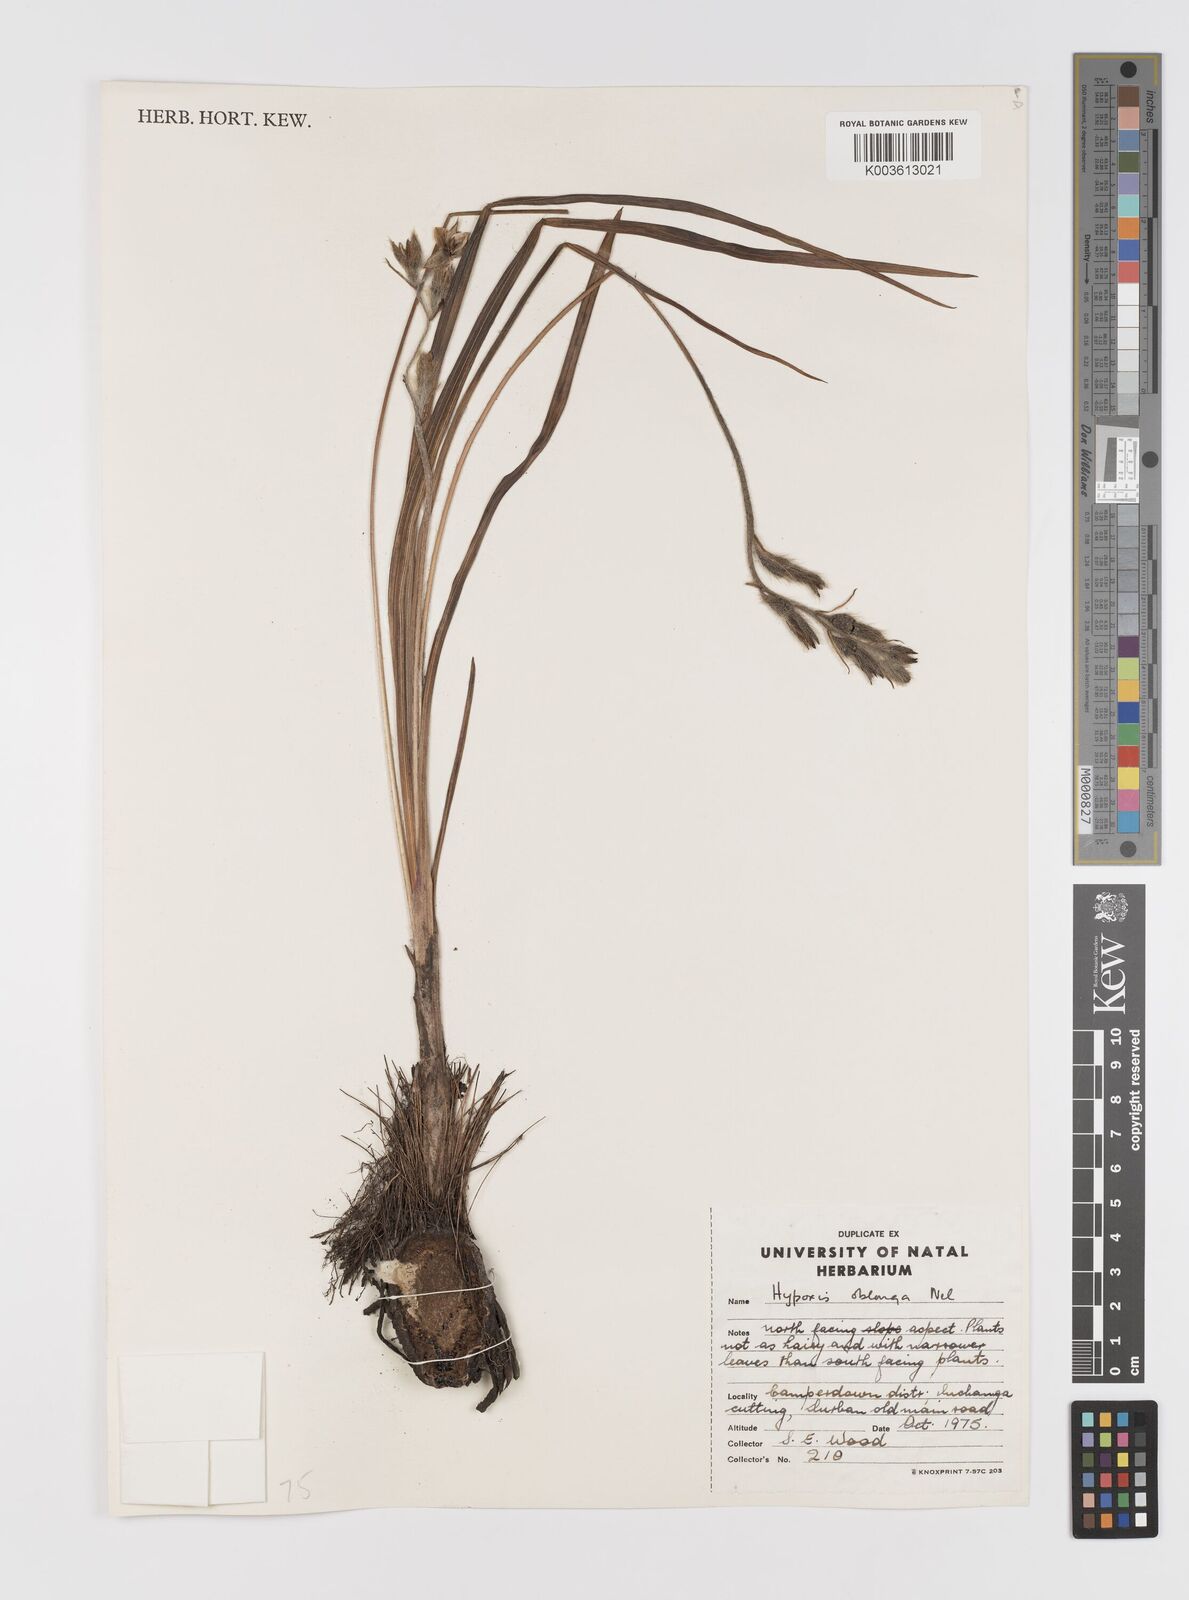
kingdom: Plantae
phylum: Tracheophyta
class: Liliopsida
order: Asparagales
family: Hypoxidaceae
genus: Hypoxis
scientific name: Hypoxis oblonga
